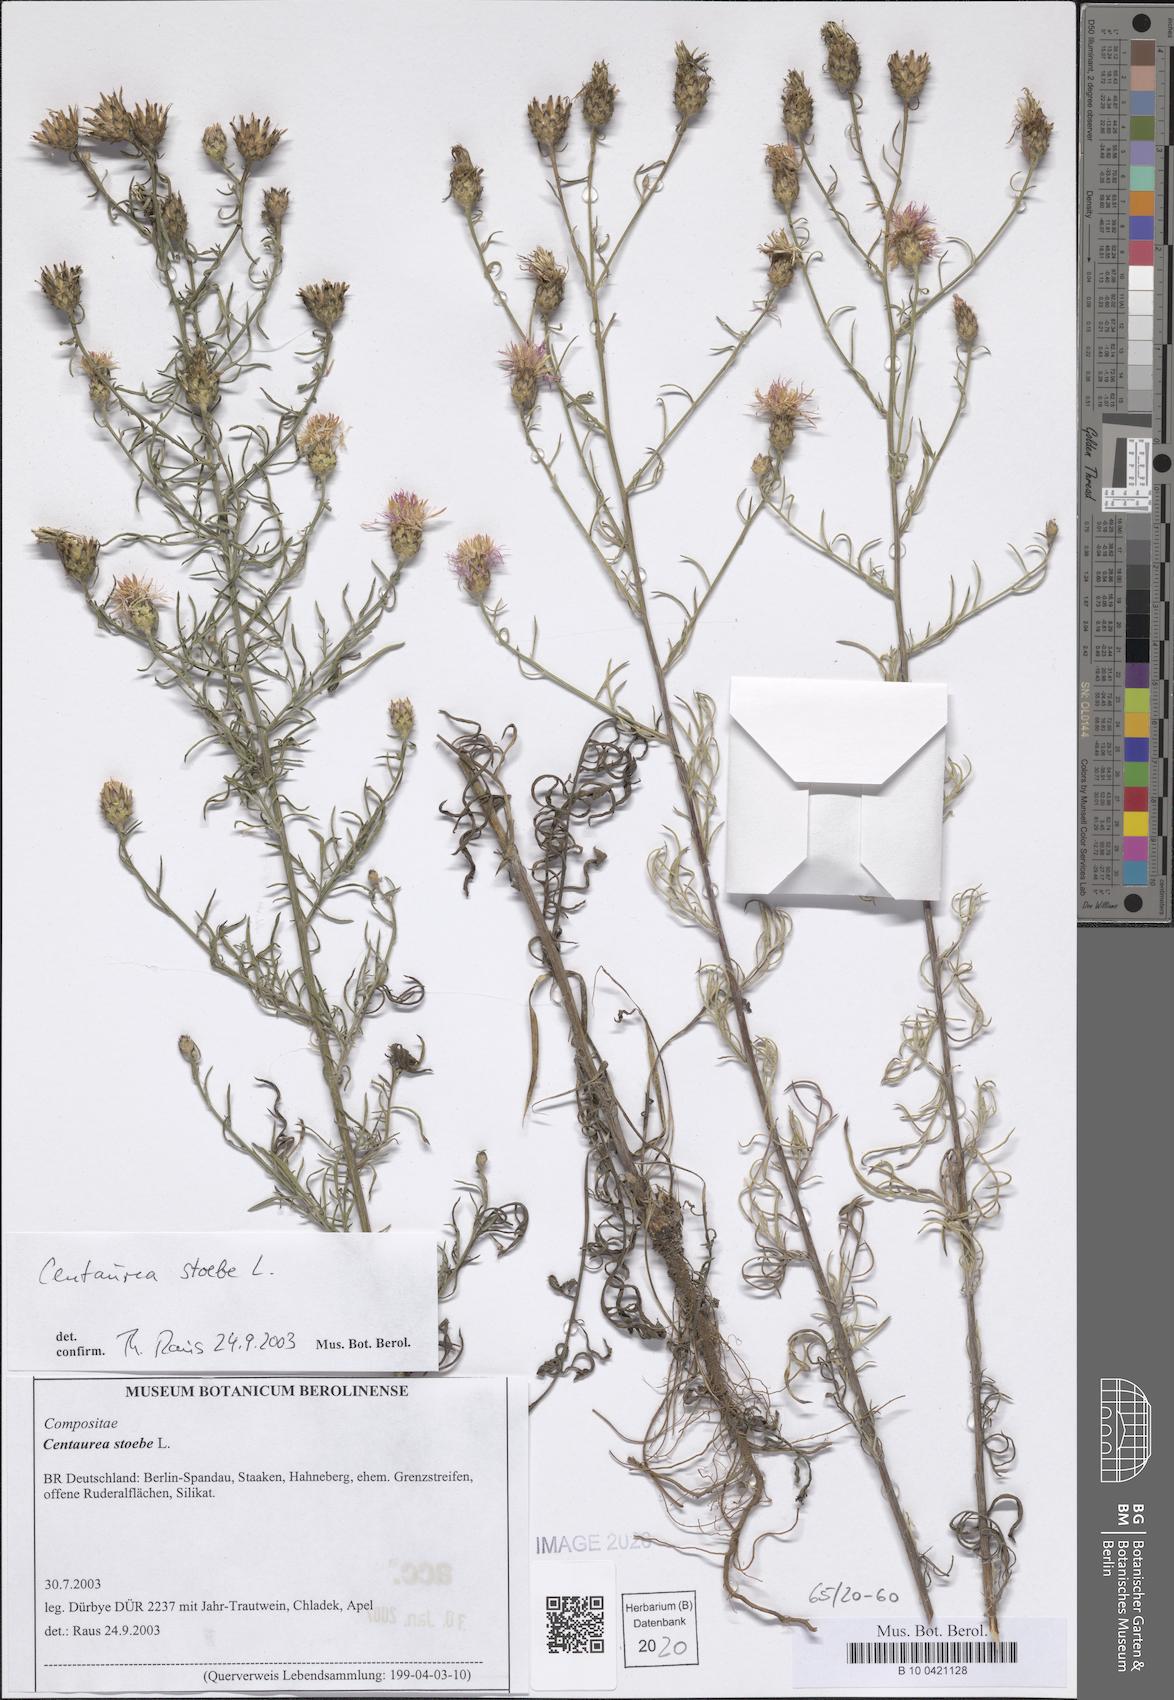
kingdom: Plantae
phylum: Tracheophyta
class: Magnoliopsida
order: Asterales
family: Asteraceae
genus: Centaurea
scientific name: Centaurea stoebe
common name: Spotted knapweed
